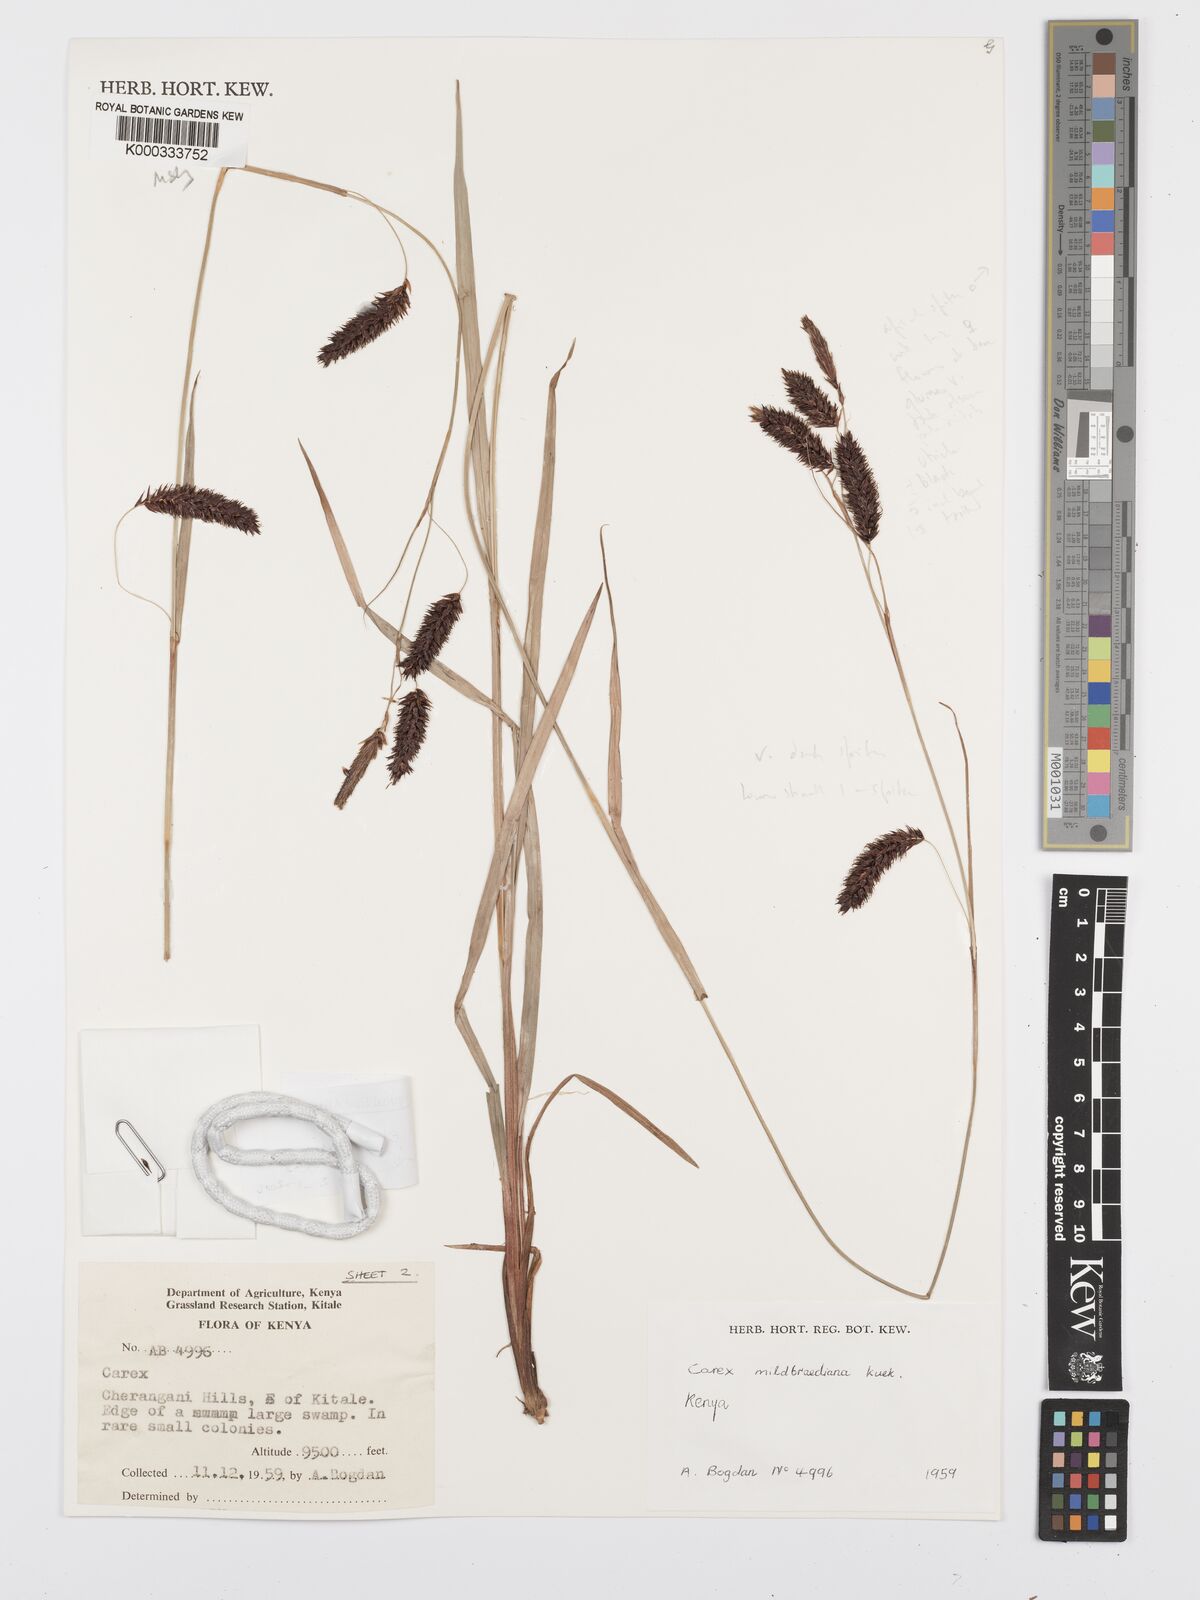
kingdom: Plantae
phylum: Tracheophyta
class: Liliopsida
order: Poales
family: Cyperaceae
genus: Carex
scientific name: Carex elgonensis
